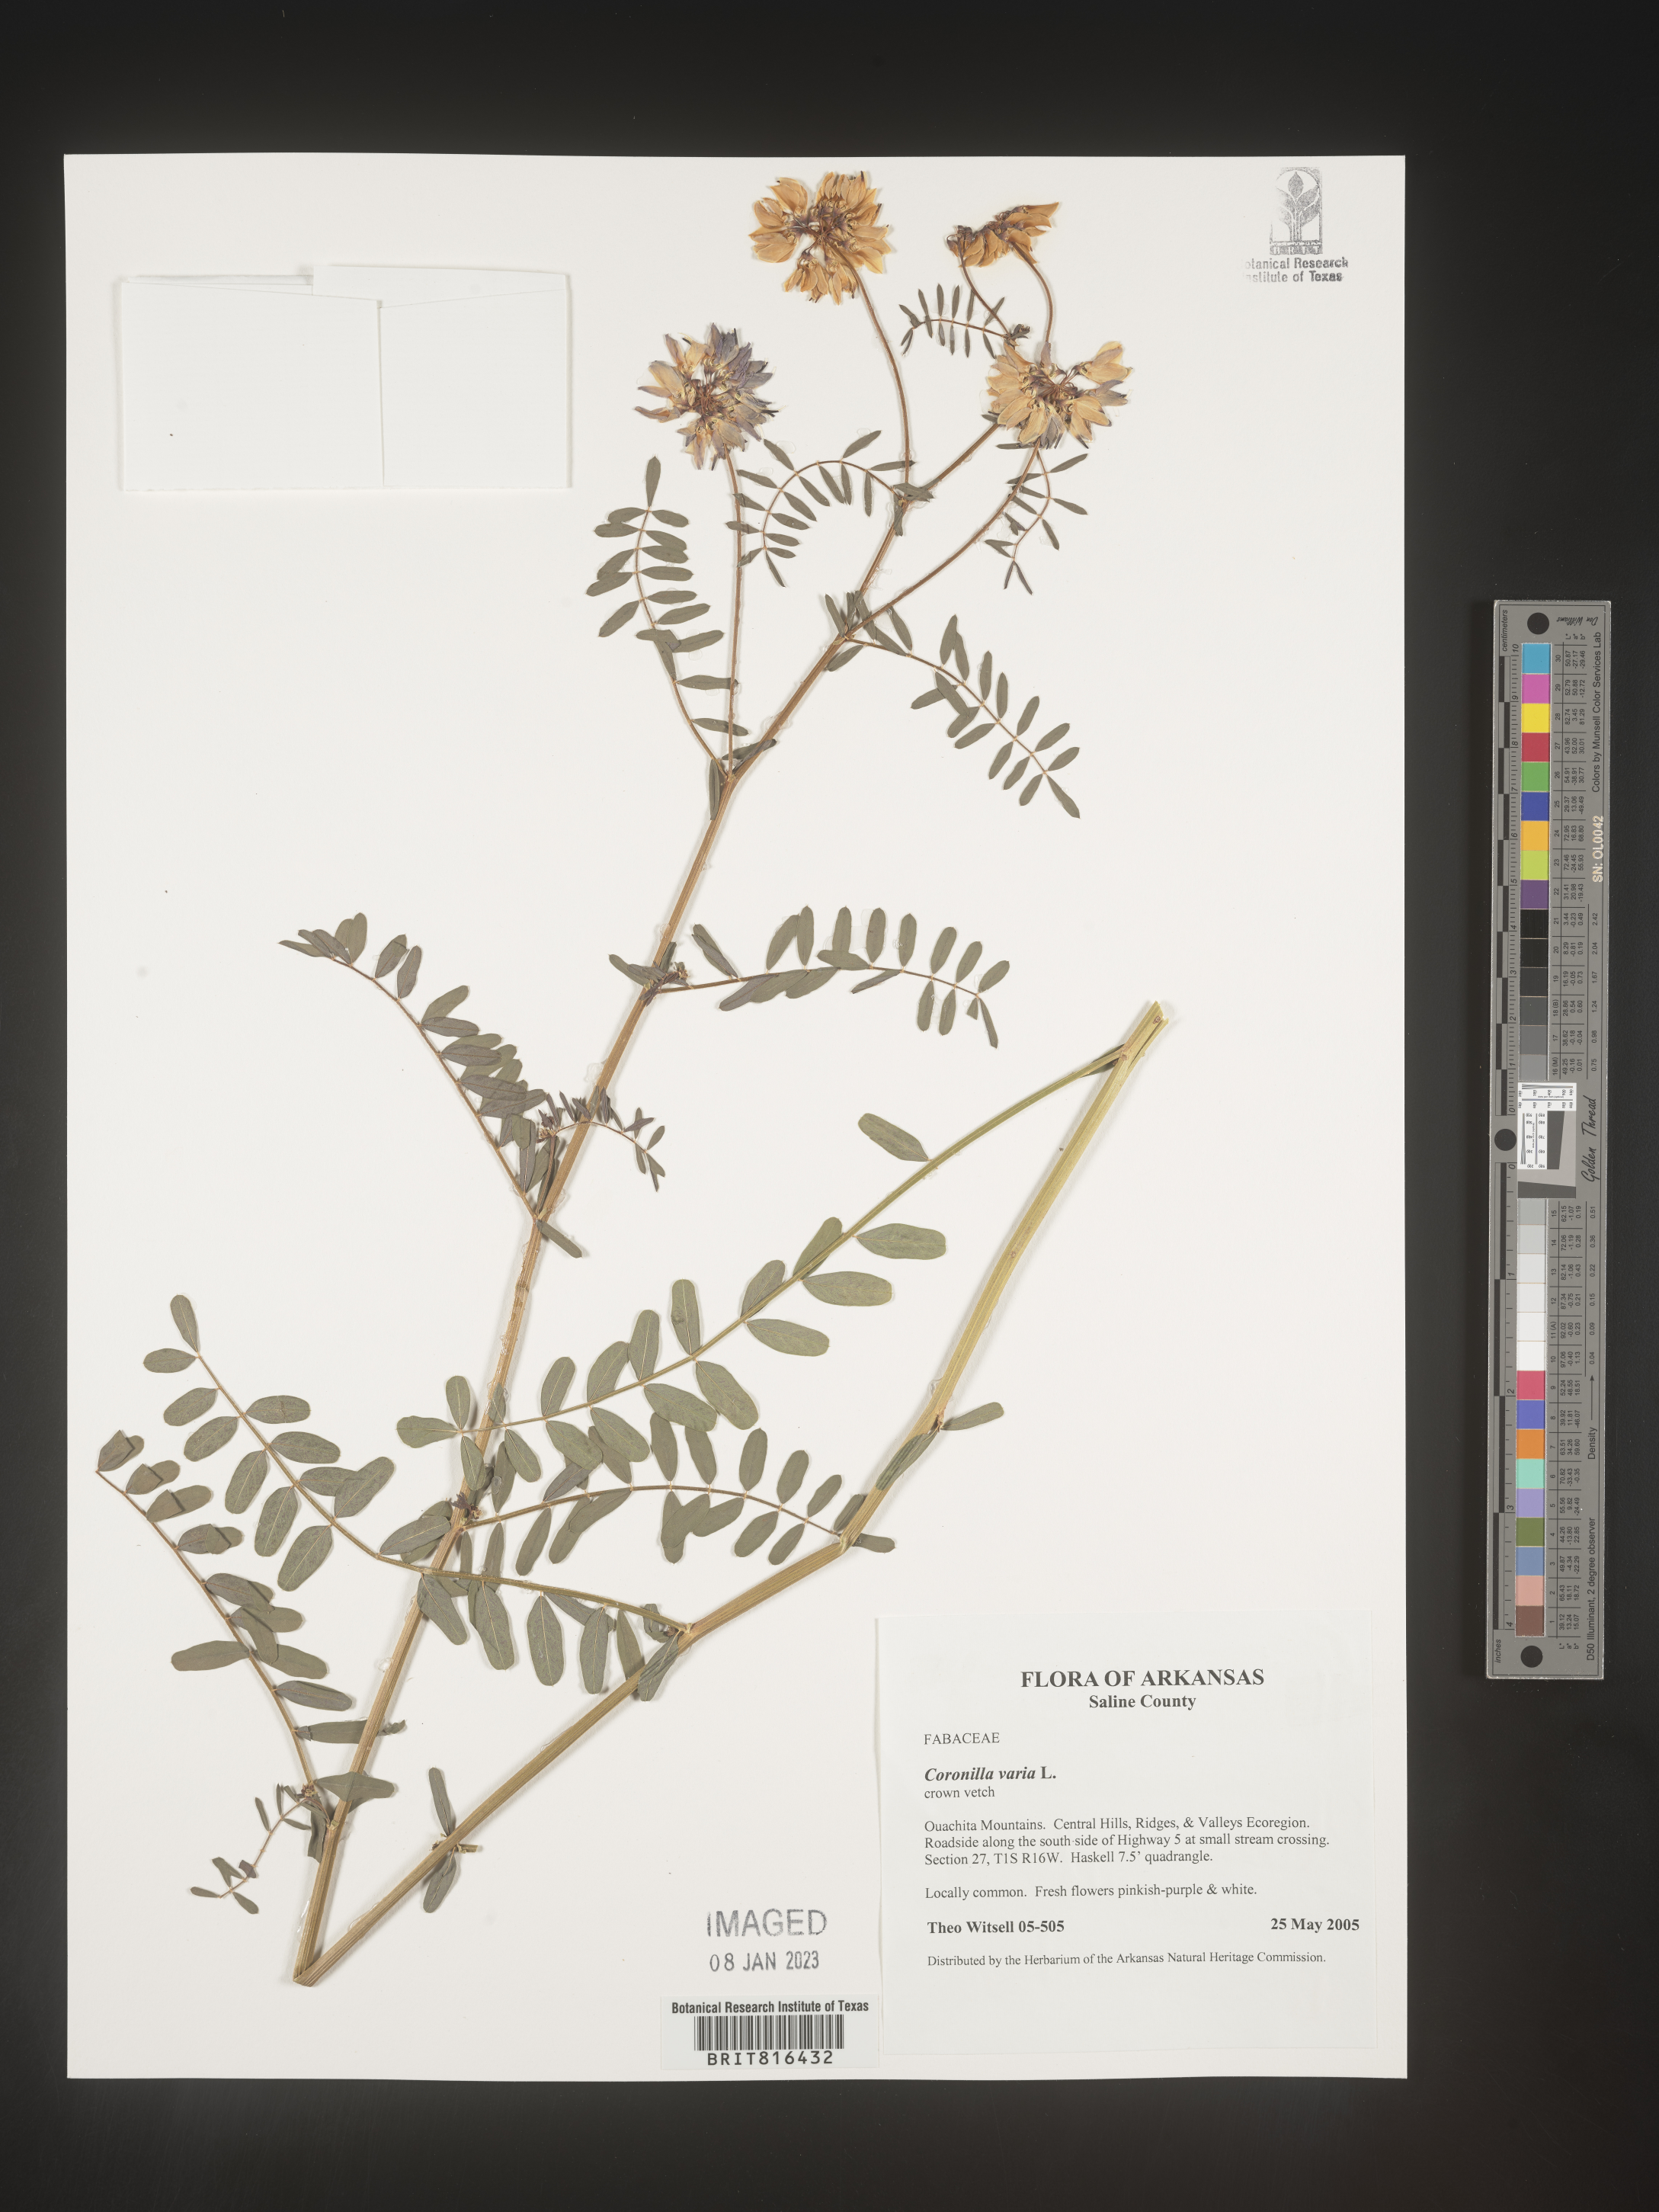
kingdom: Plantae
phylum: Tracheophyta
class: Magnoliopsida
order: Fabales
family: Fabaceae
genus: Coronilla
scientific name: Coronilla
